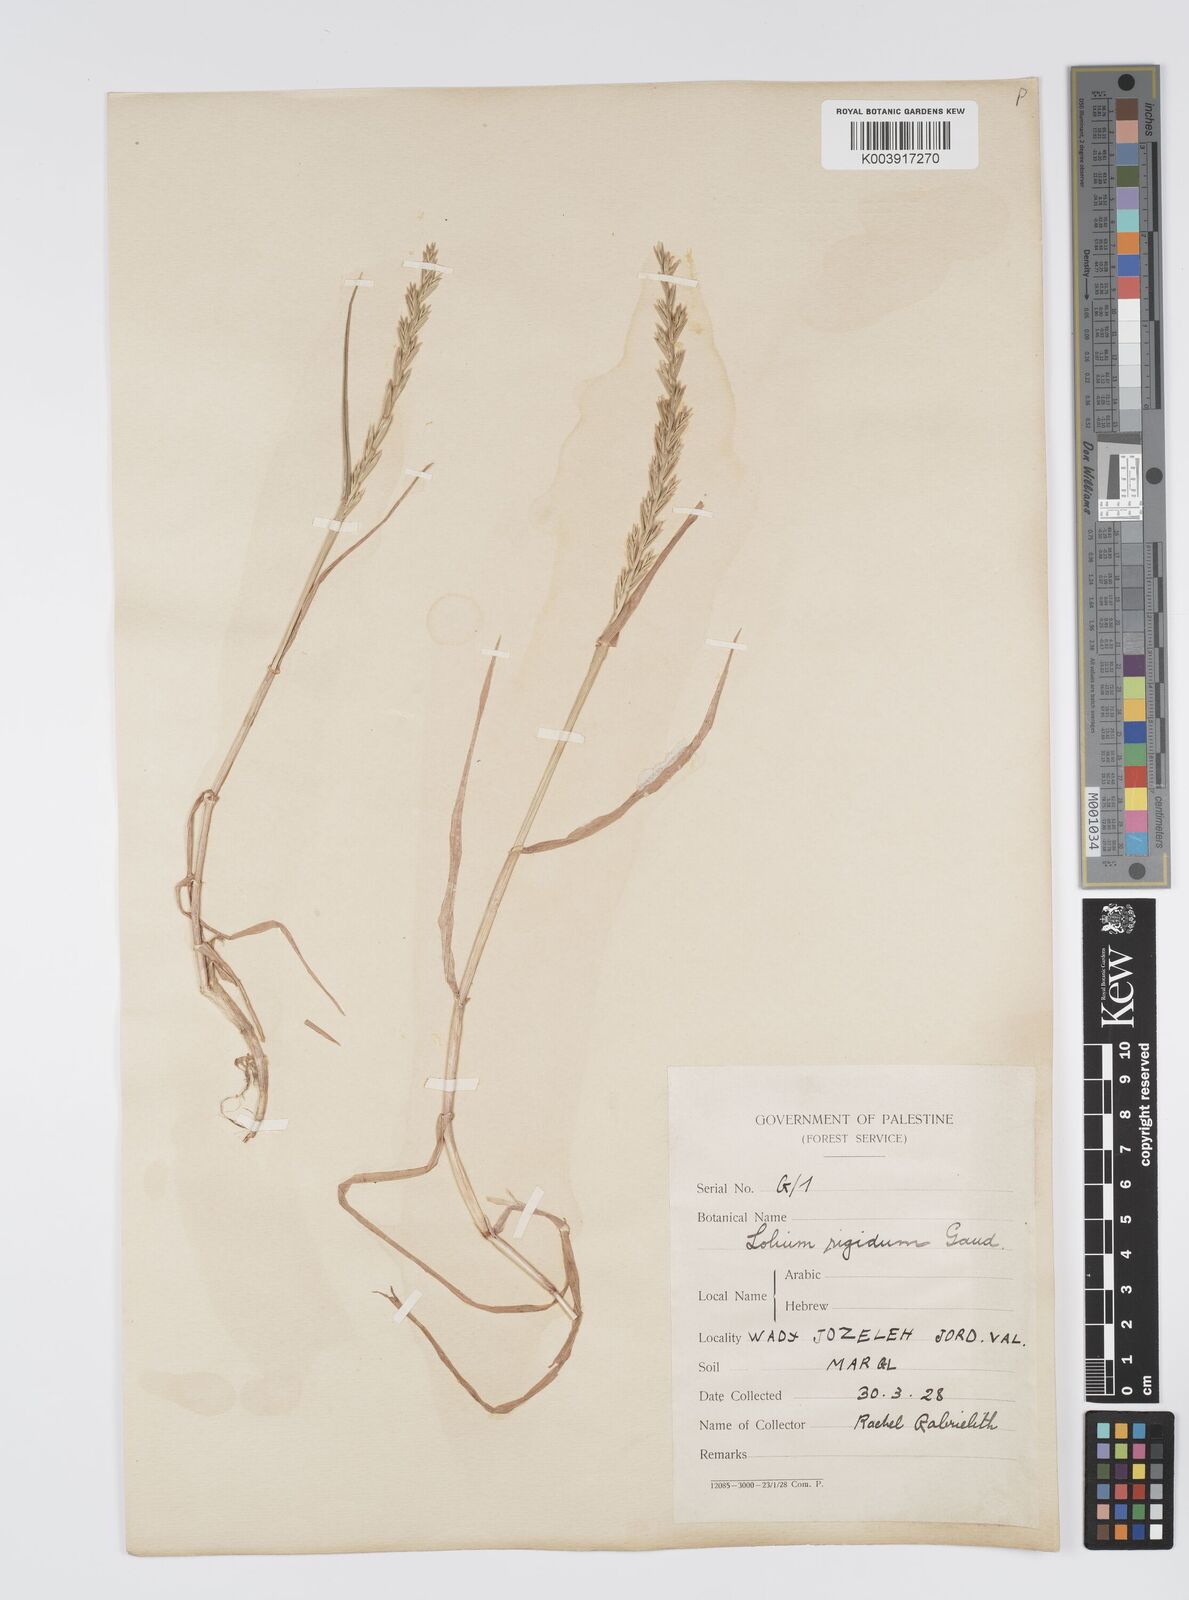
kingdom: Plantae
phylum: Tracheophyta
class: Liliopsida
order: Poales
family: Poaceae
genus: Lolium
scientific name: Lolium rigidum
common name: Wimmera ryegrass
